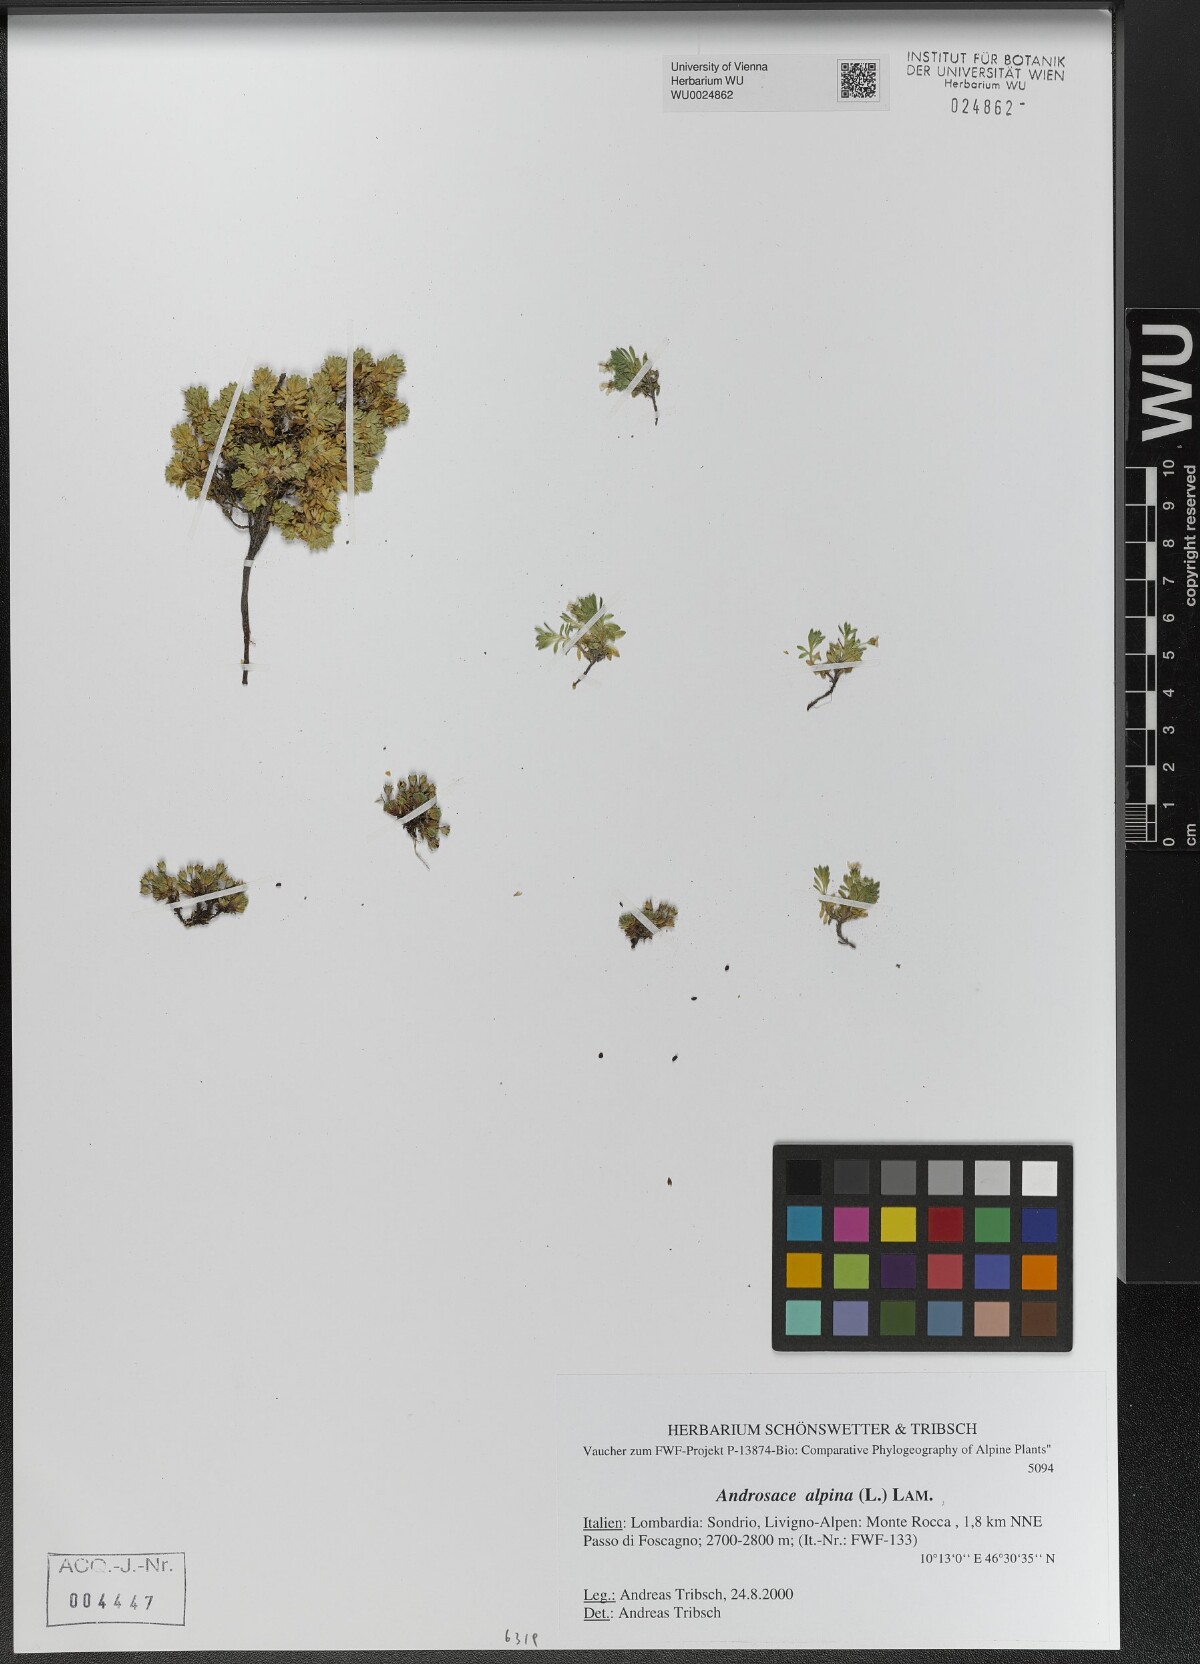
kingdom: Plantae
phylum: Tracheophyta
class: Magnoliopsida
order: Ericales
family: Primulaceae
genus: Androsace
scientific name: Androsace alpina
